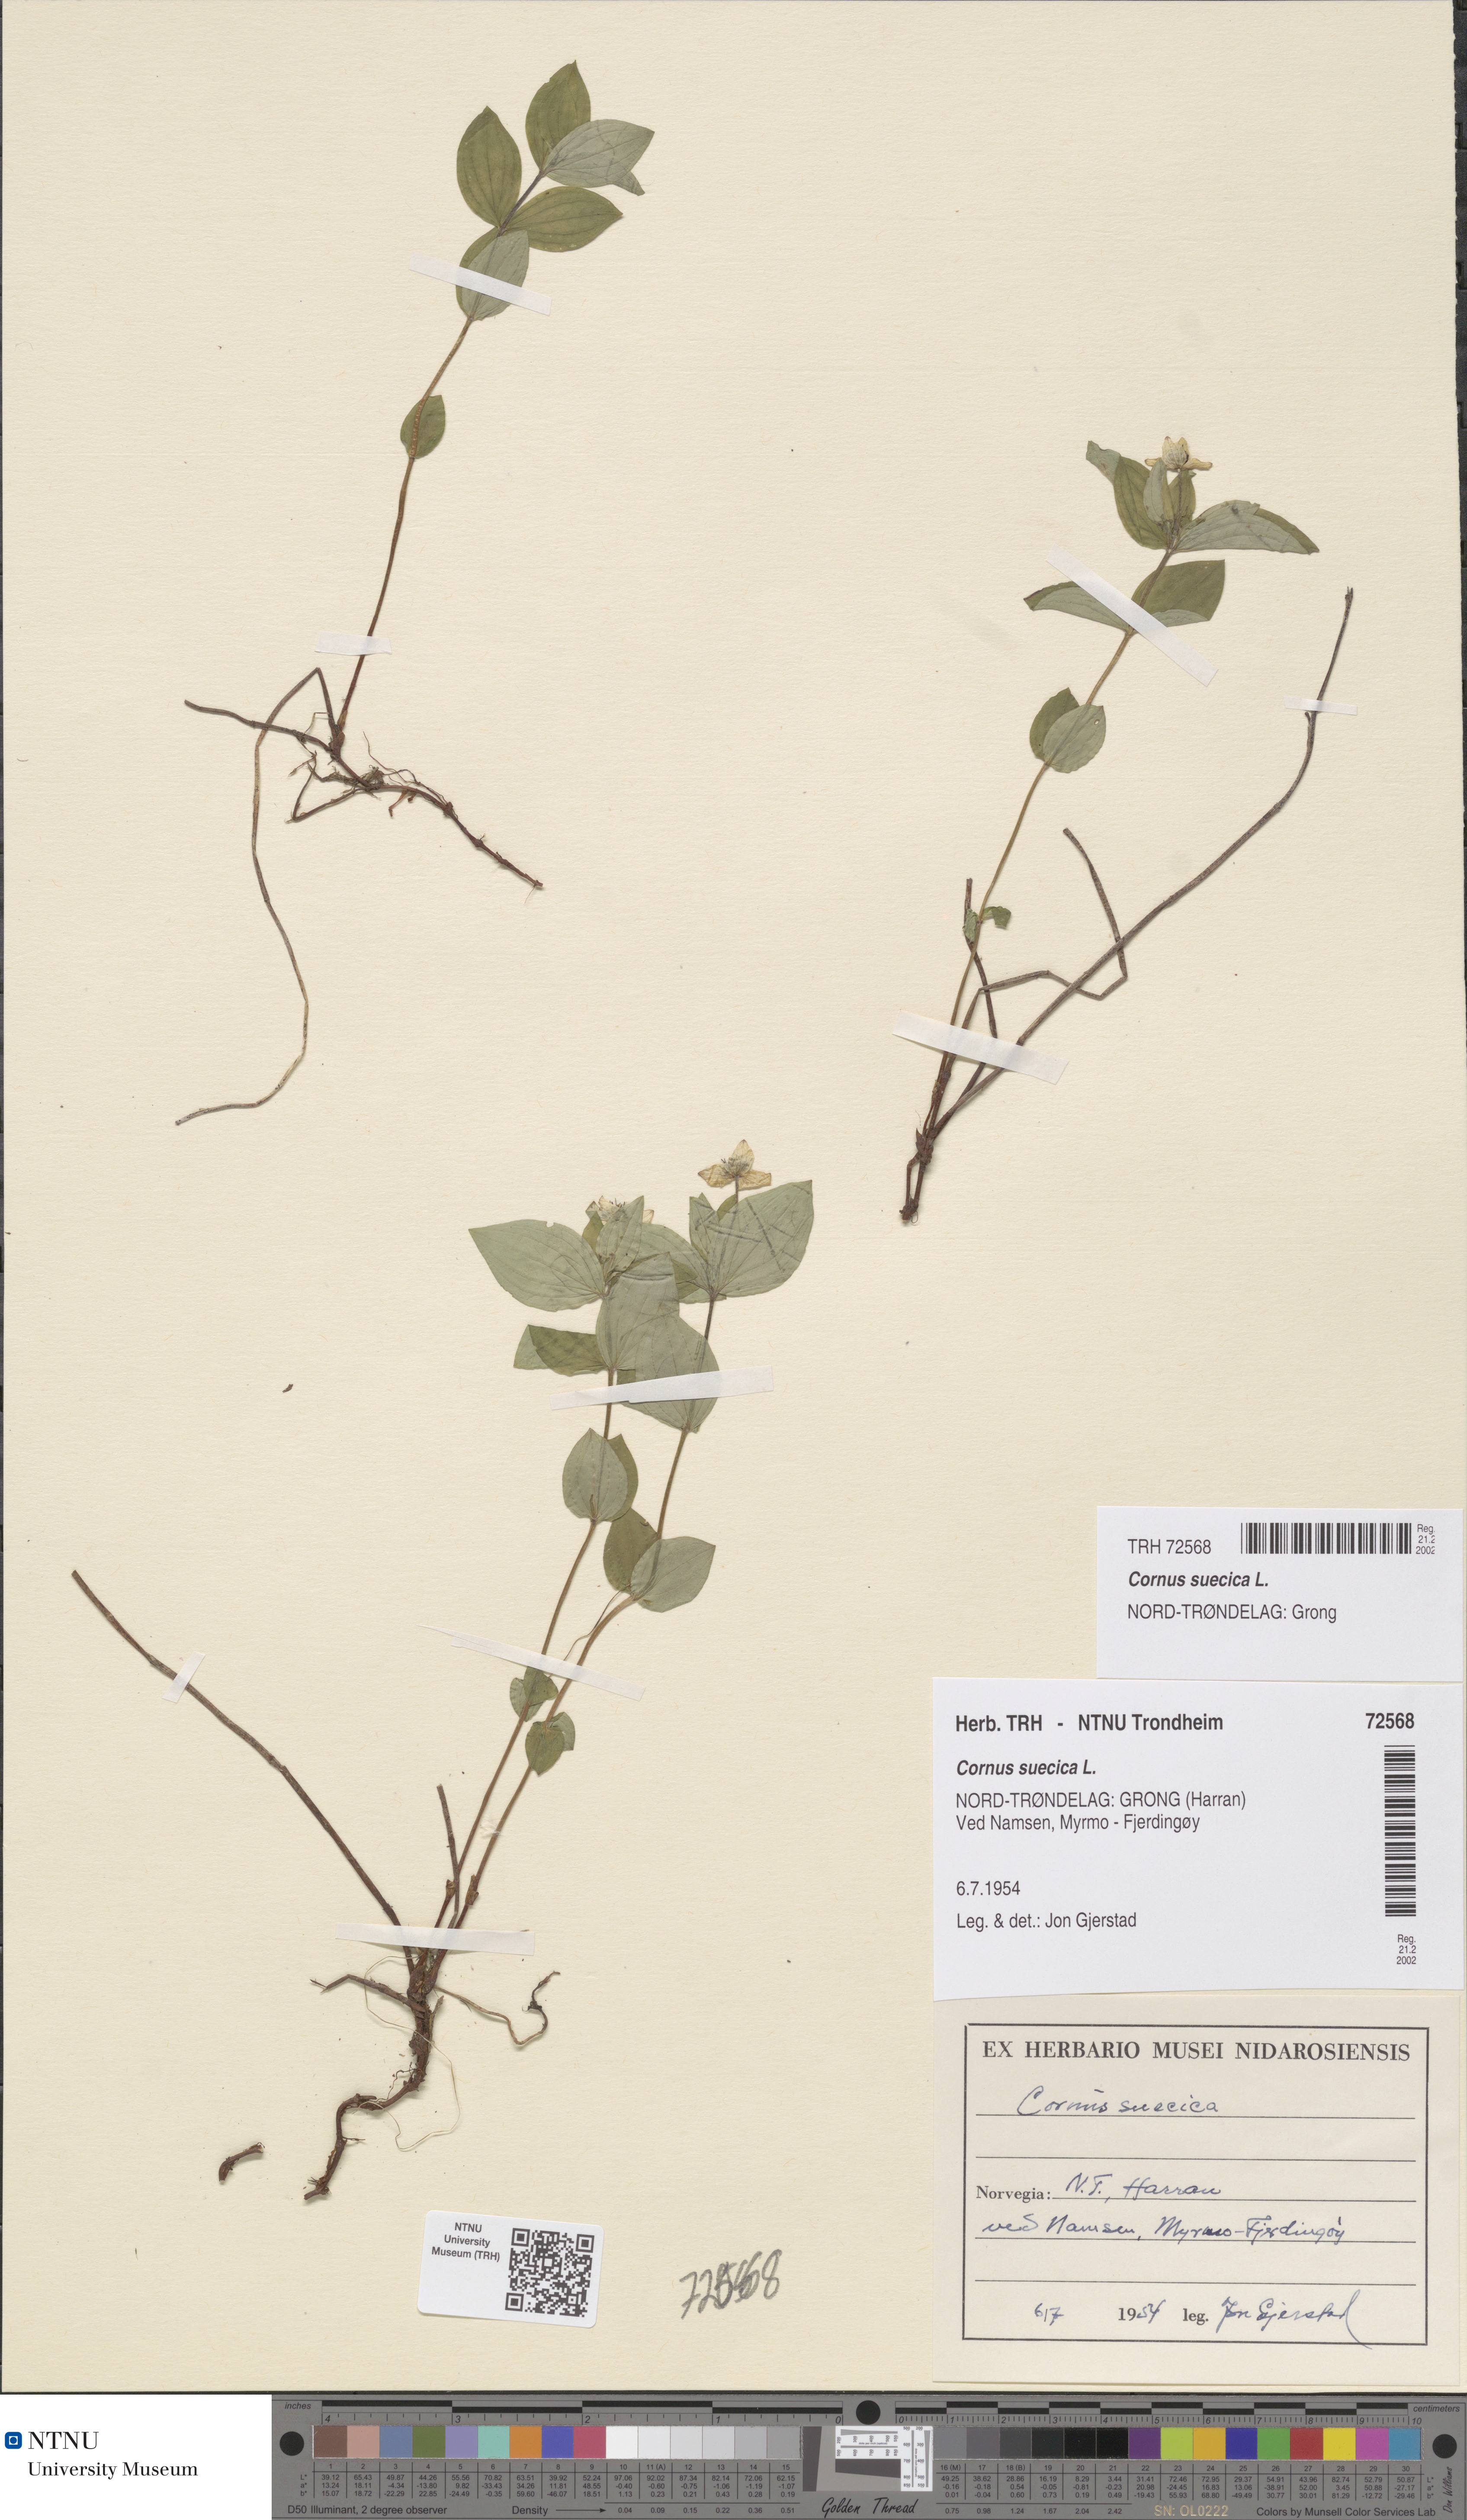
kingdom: Plantae
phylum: Tracheophyta
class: Magnoliopsida
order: Cornales
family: Cornaceae
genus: Cornus
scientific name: Cornus suecica
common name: Dwarf cornel
